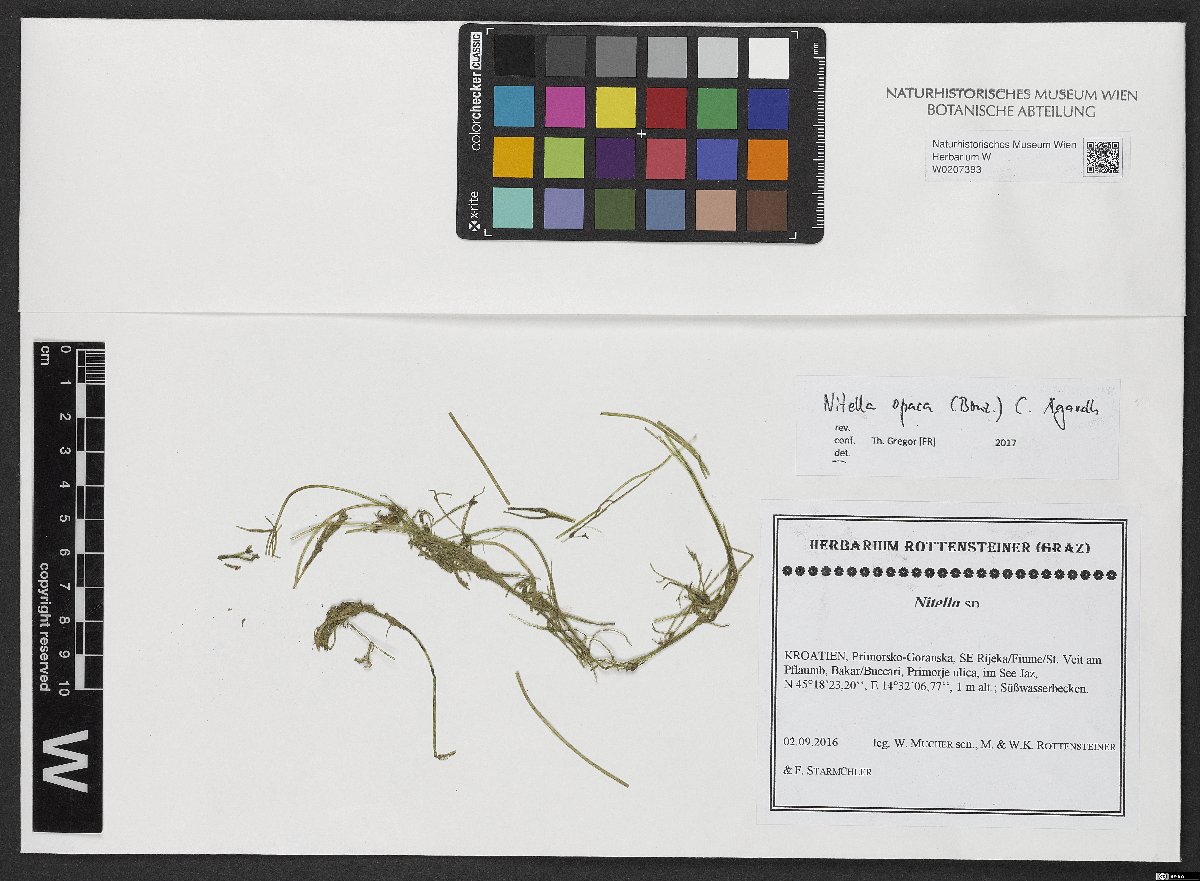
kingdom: Plantae
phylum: Charophyta
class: Charophyceae
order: Charales
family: Characeae
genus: Nitella
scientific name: Nitella opaca
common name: Dark stonewort
